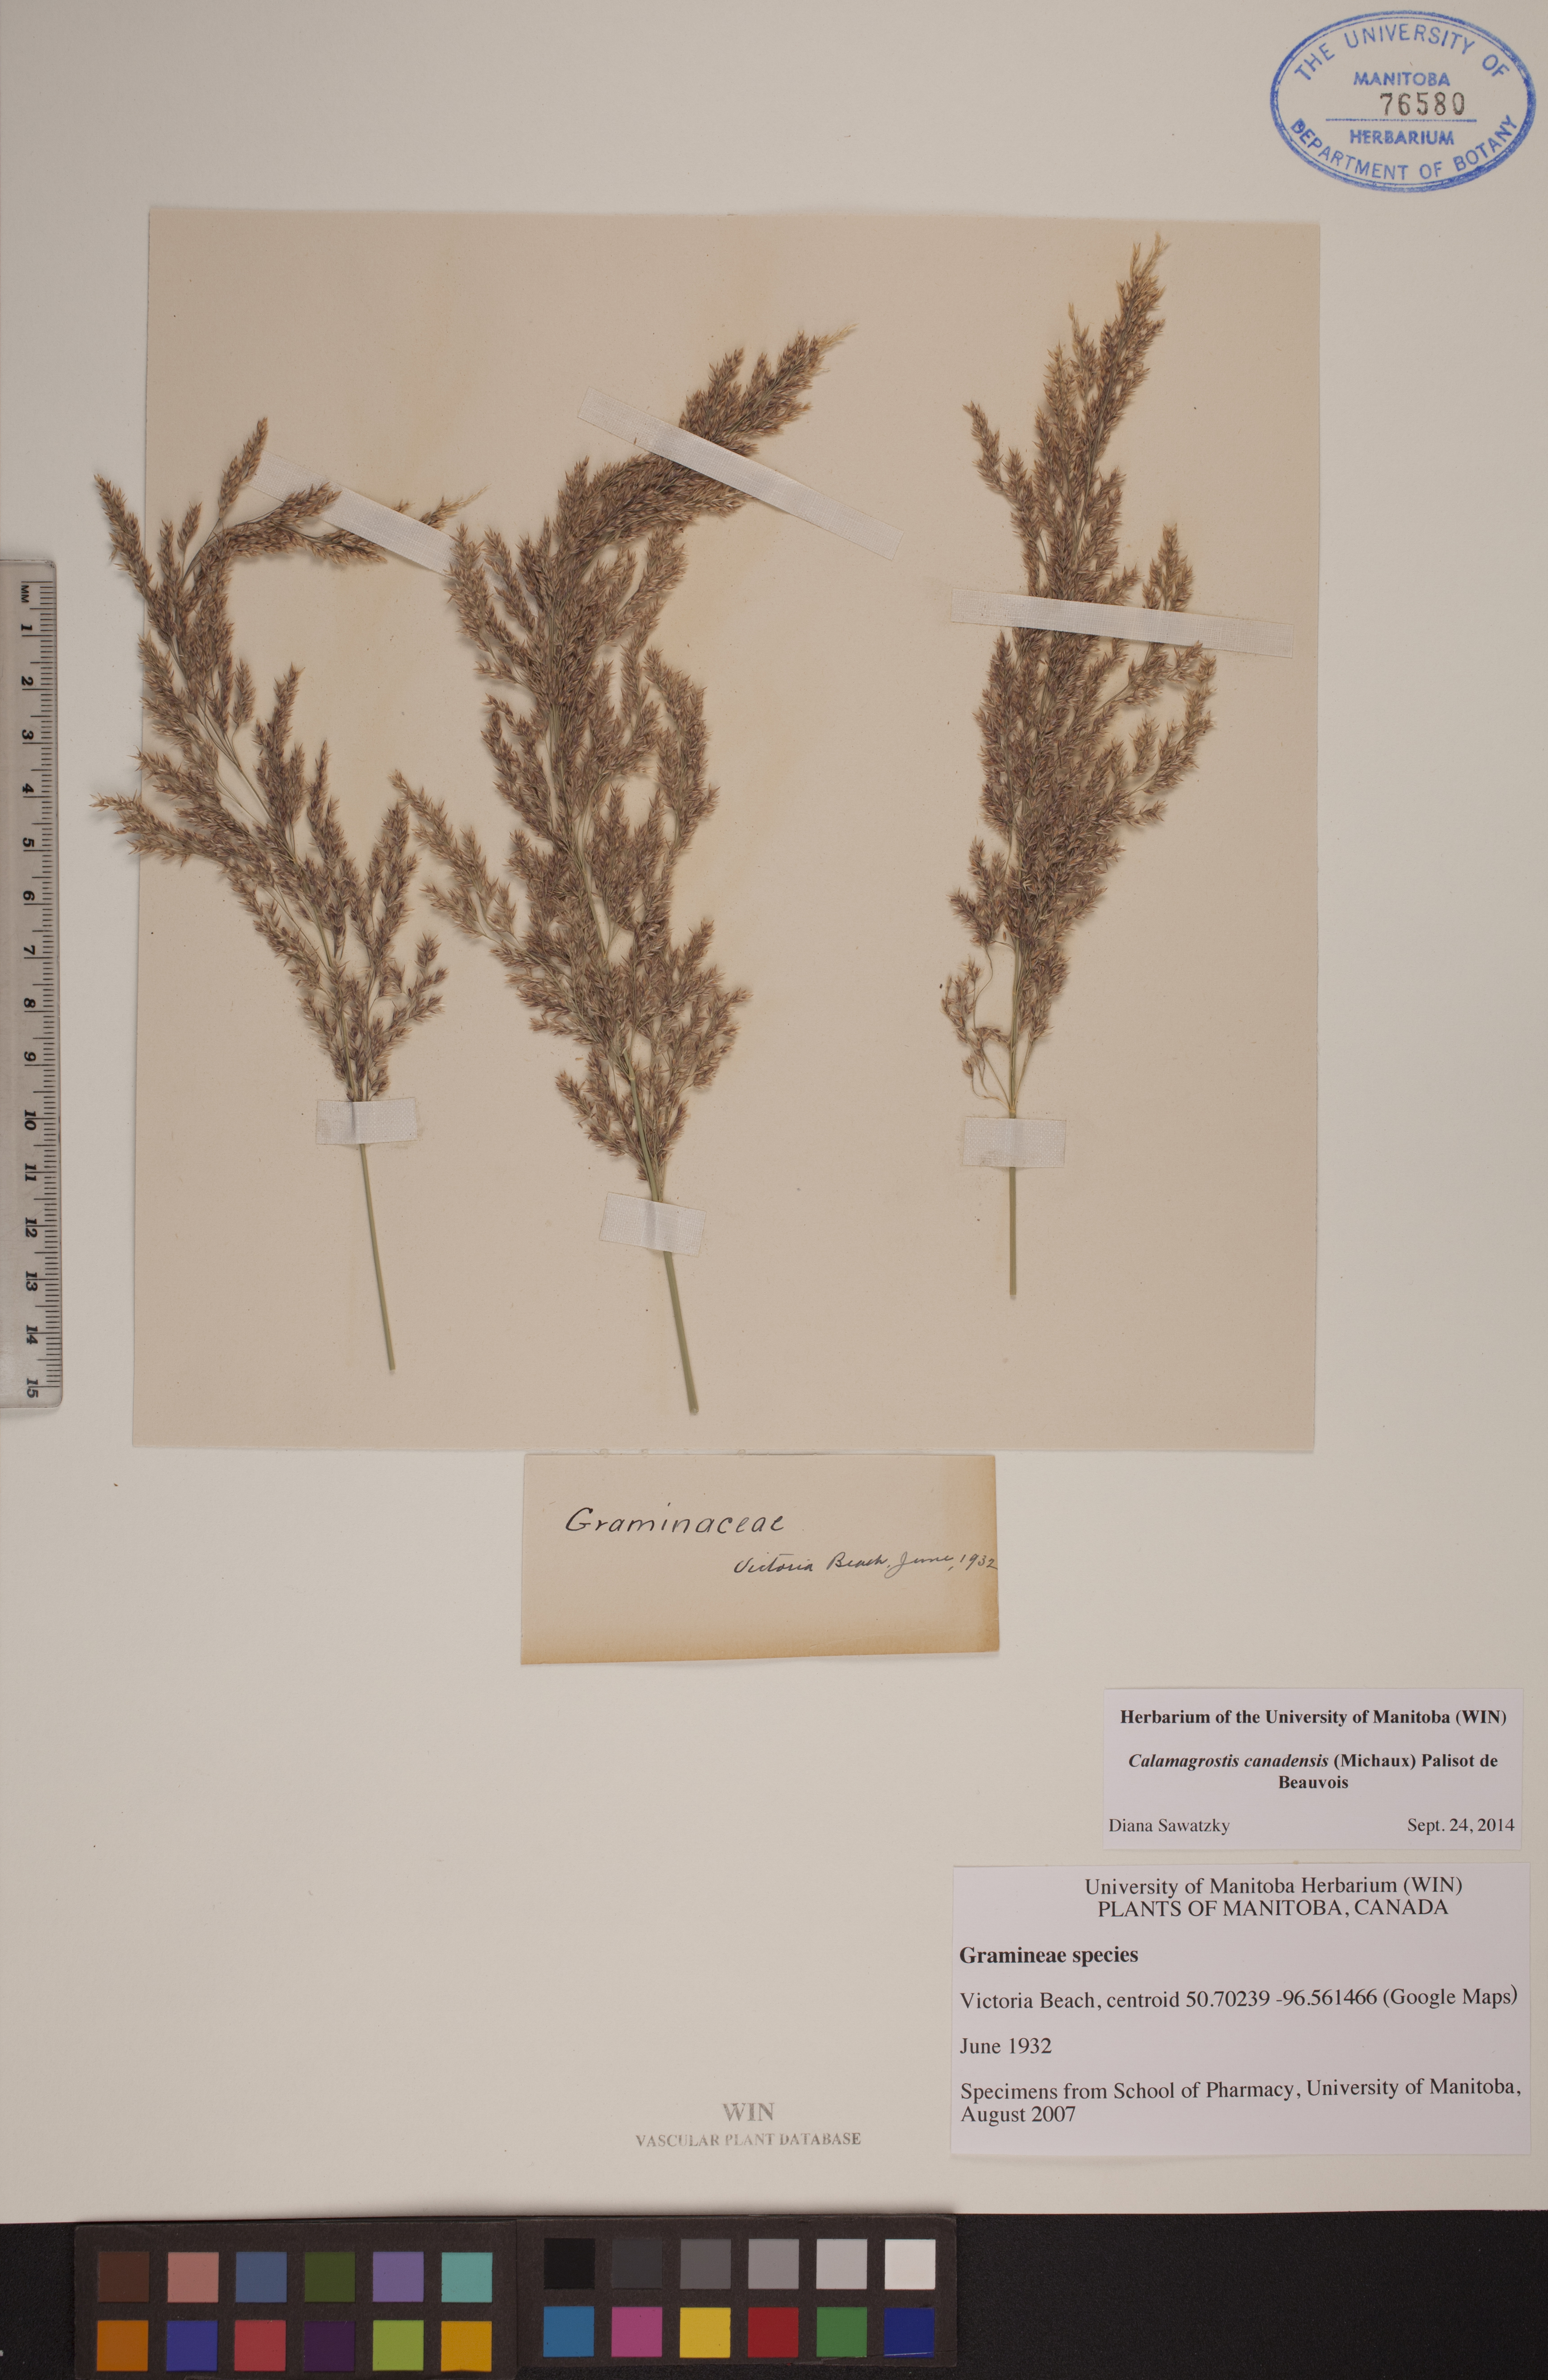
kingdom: Plantae
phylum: Tracheophyta
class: Liliopsida
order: Poales
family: Poaceae
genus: Calamagrostis
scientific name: Calamagrostis canadensis
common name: Canada bluejoint
